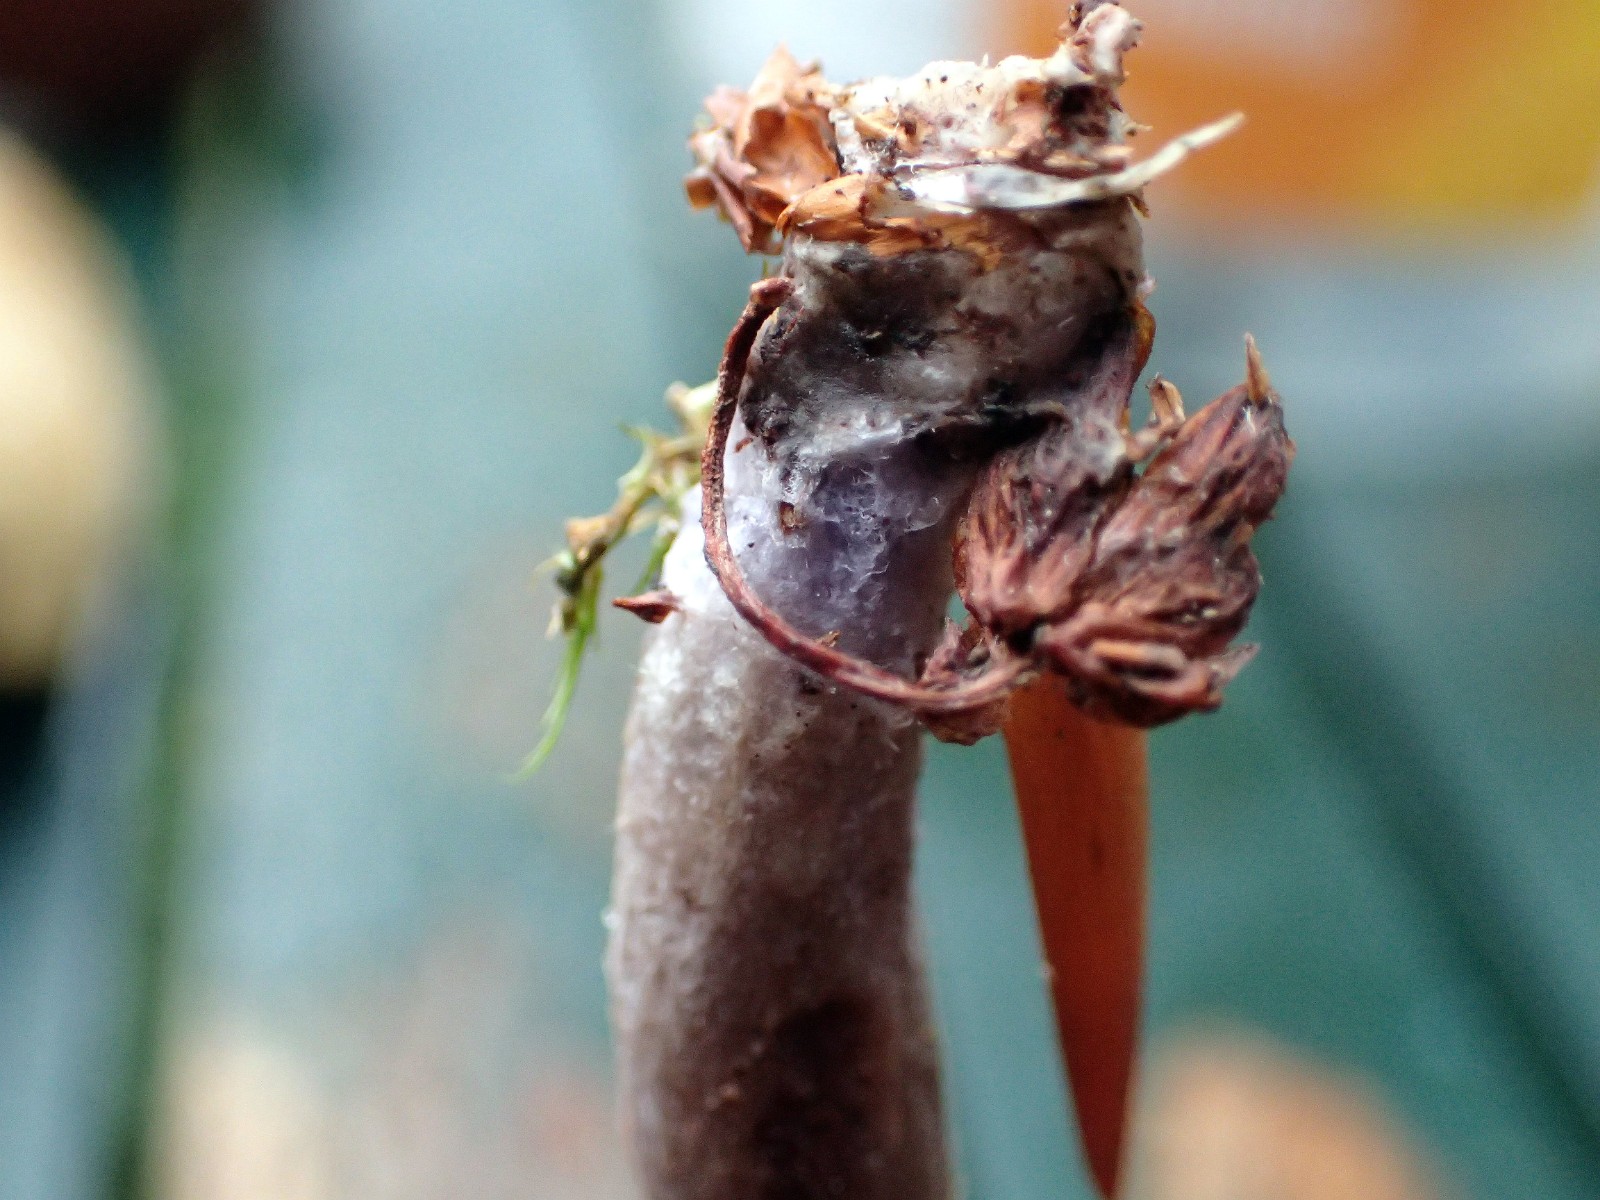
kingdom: Fungi
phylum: Basidiomycota
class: Agaricomycetes
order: Agaricales
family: Hydnangiaceae
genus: Laccaria
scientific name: Laccaria bicolor
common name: tvefarvet ametysthat
